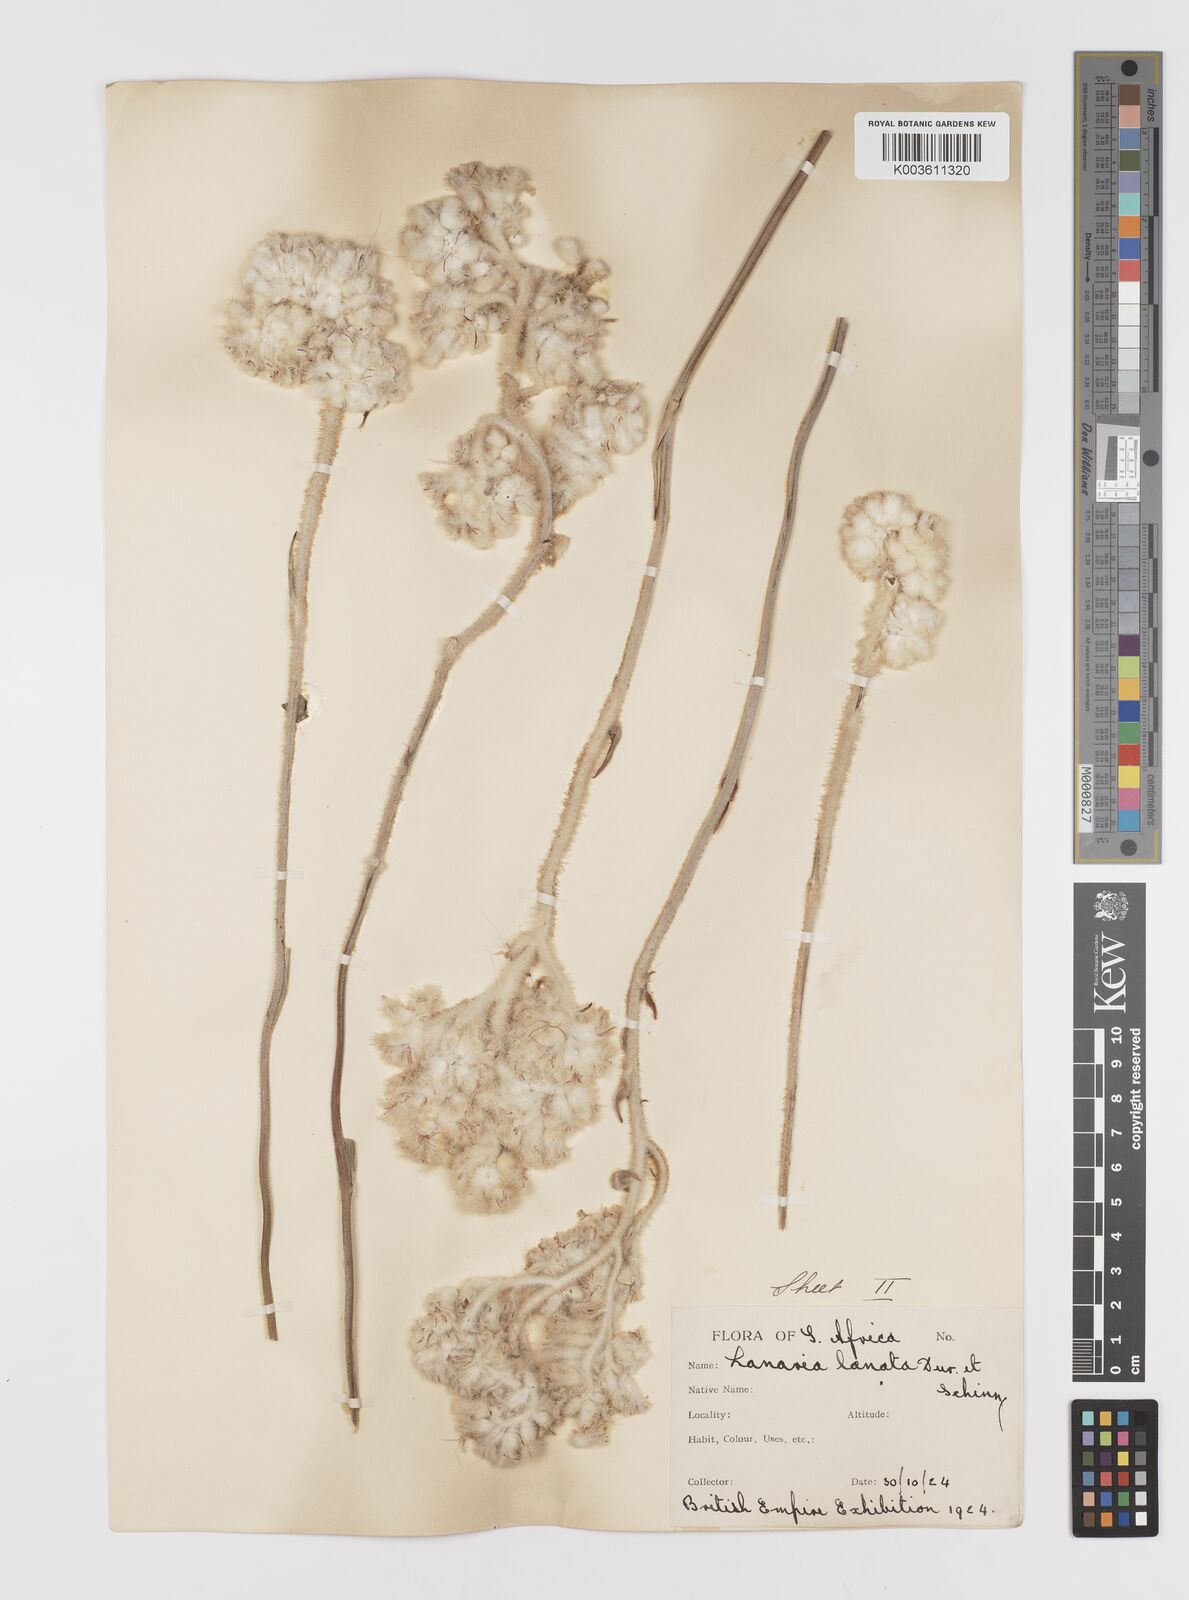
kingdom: Plantae
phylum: Tracheophyta
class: Liliopsida
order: Asparagales
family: Lanariaceae
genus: Lanaria
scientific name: Lanaria lanata
